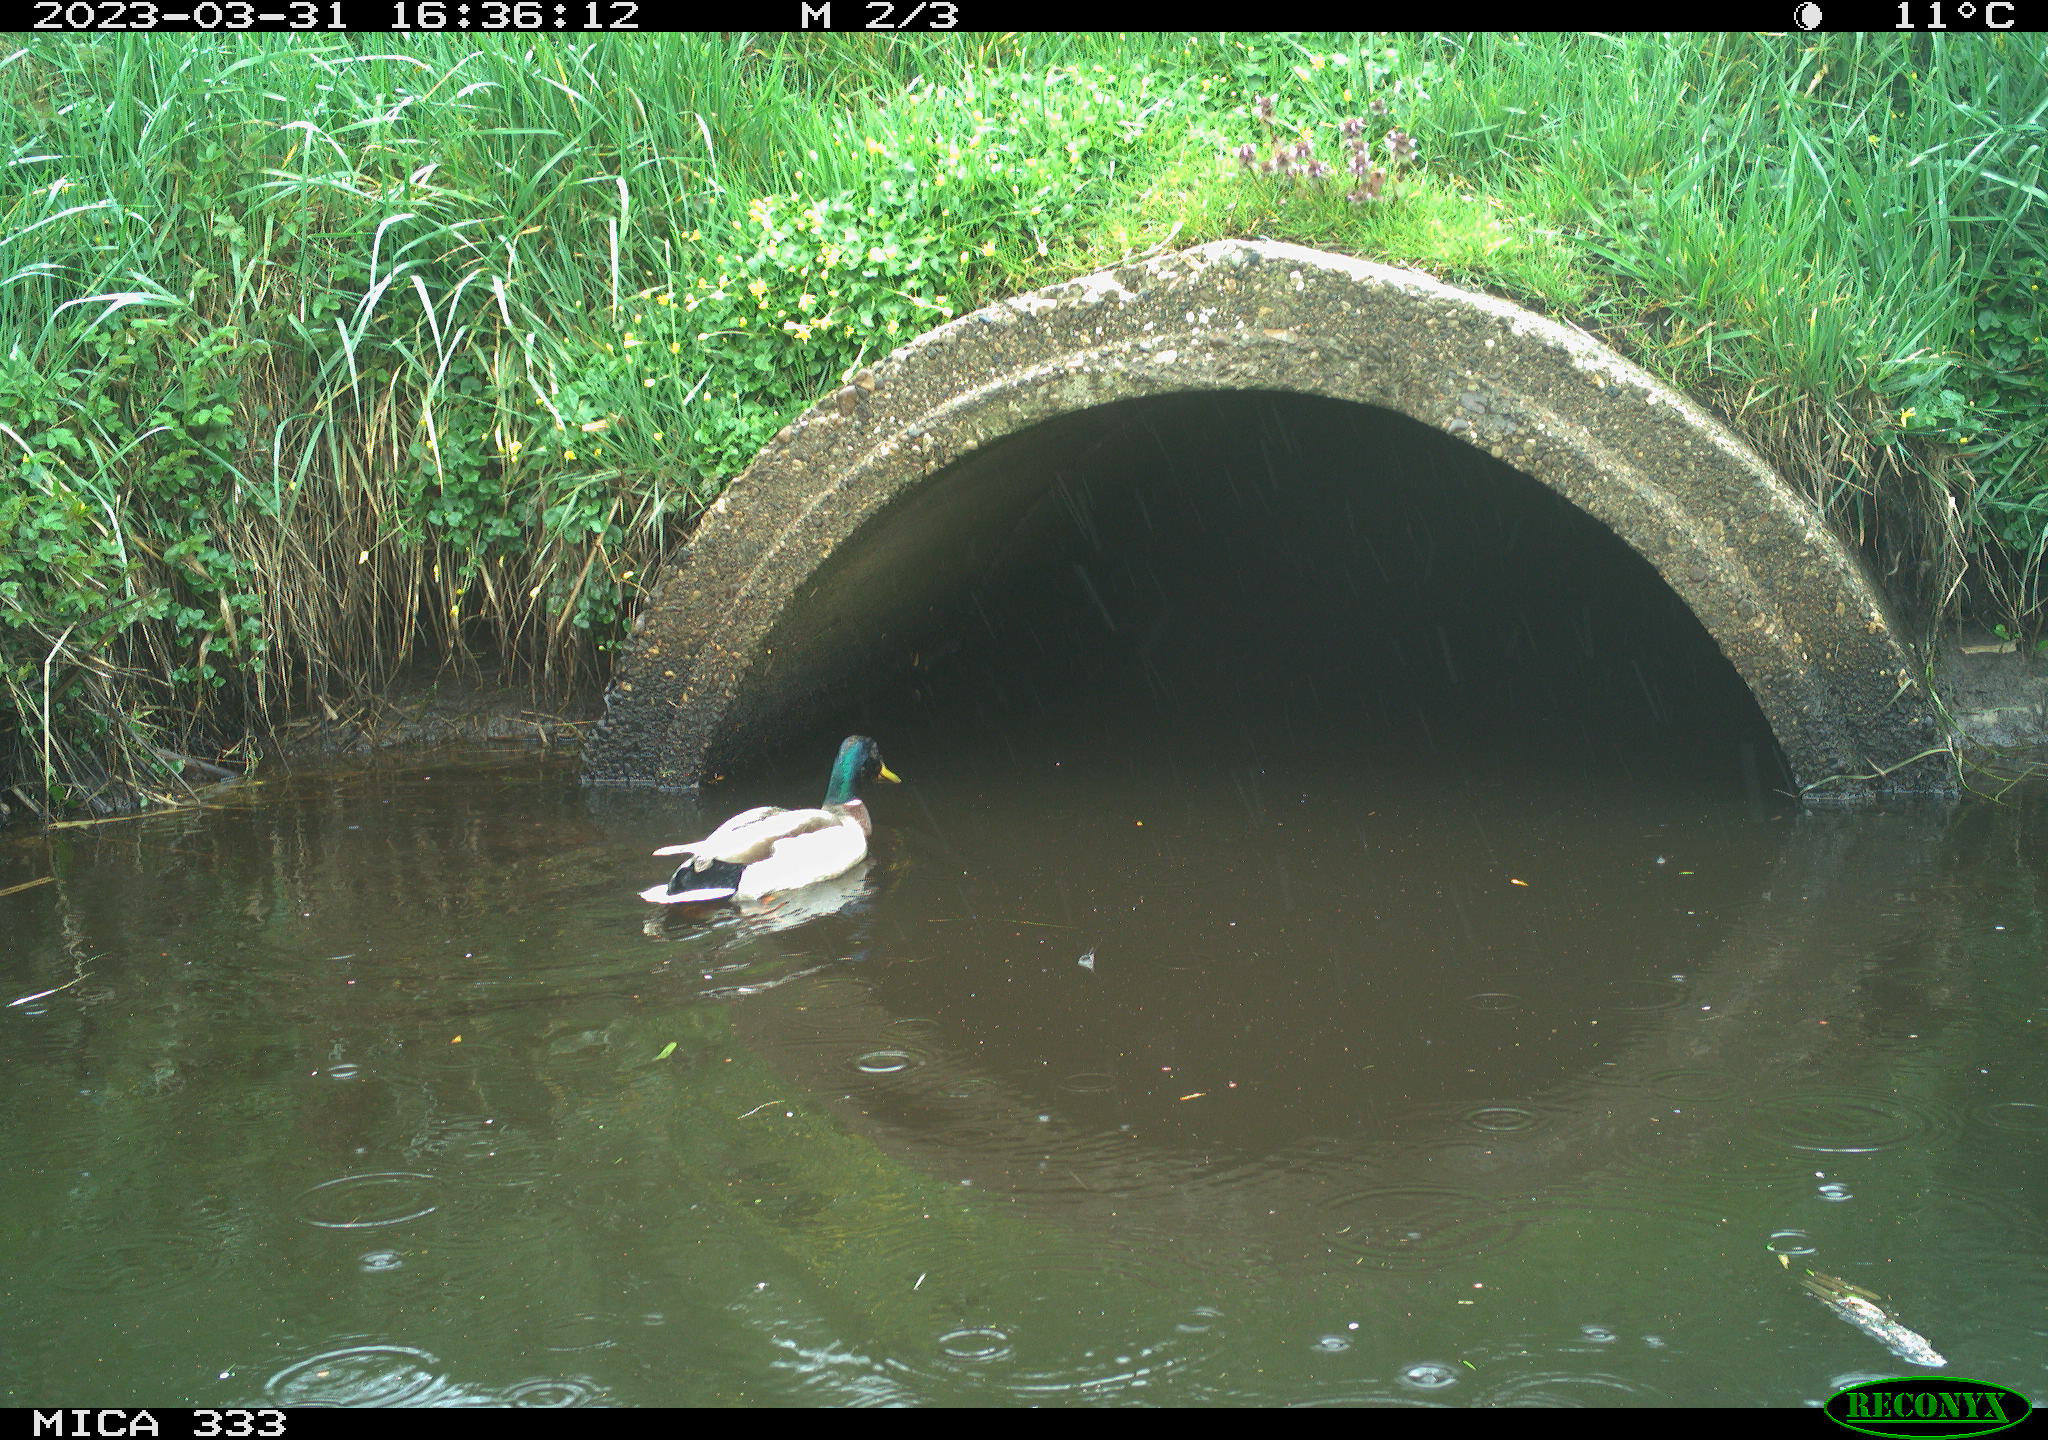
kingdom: Animalia
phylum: Chordata
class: Aves
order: Anseriformes
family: Anatidae
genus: Anas
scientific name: Anas
